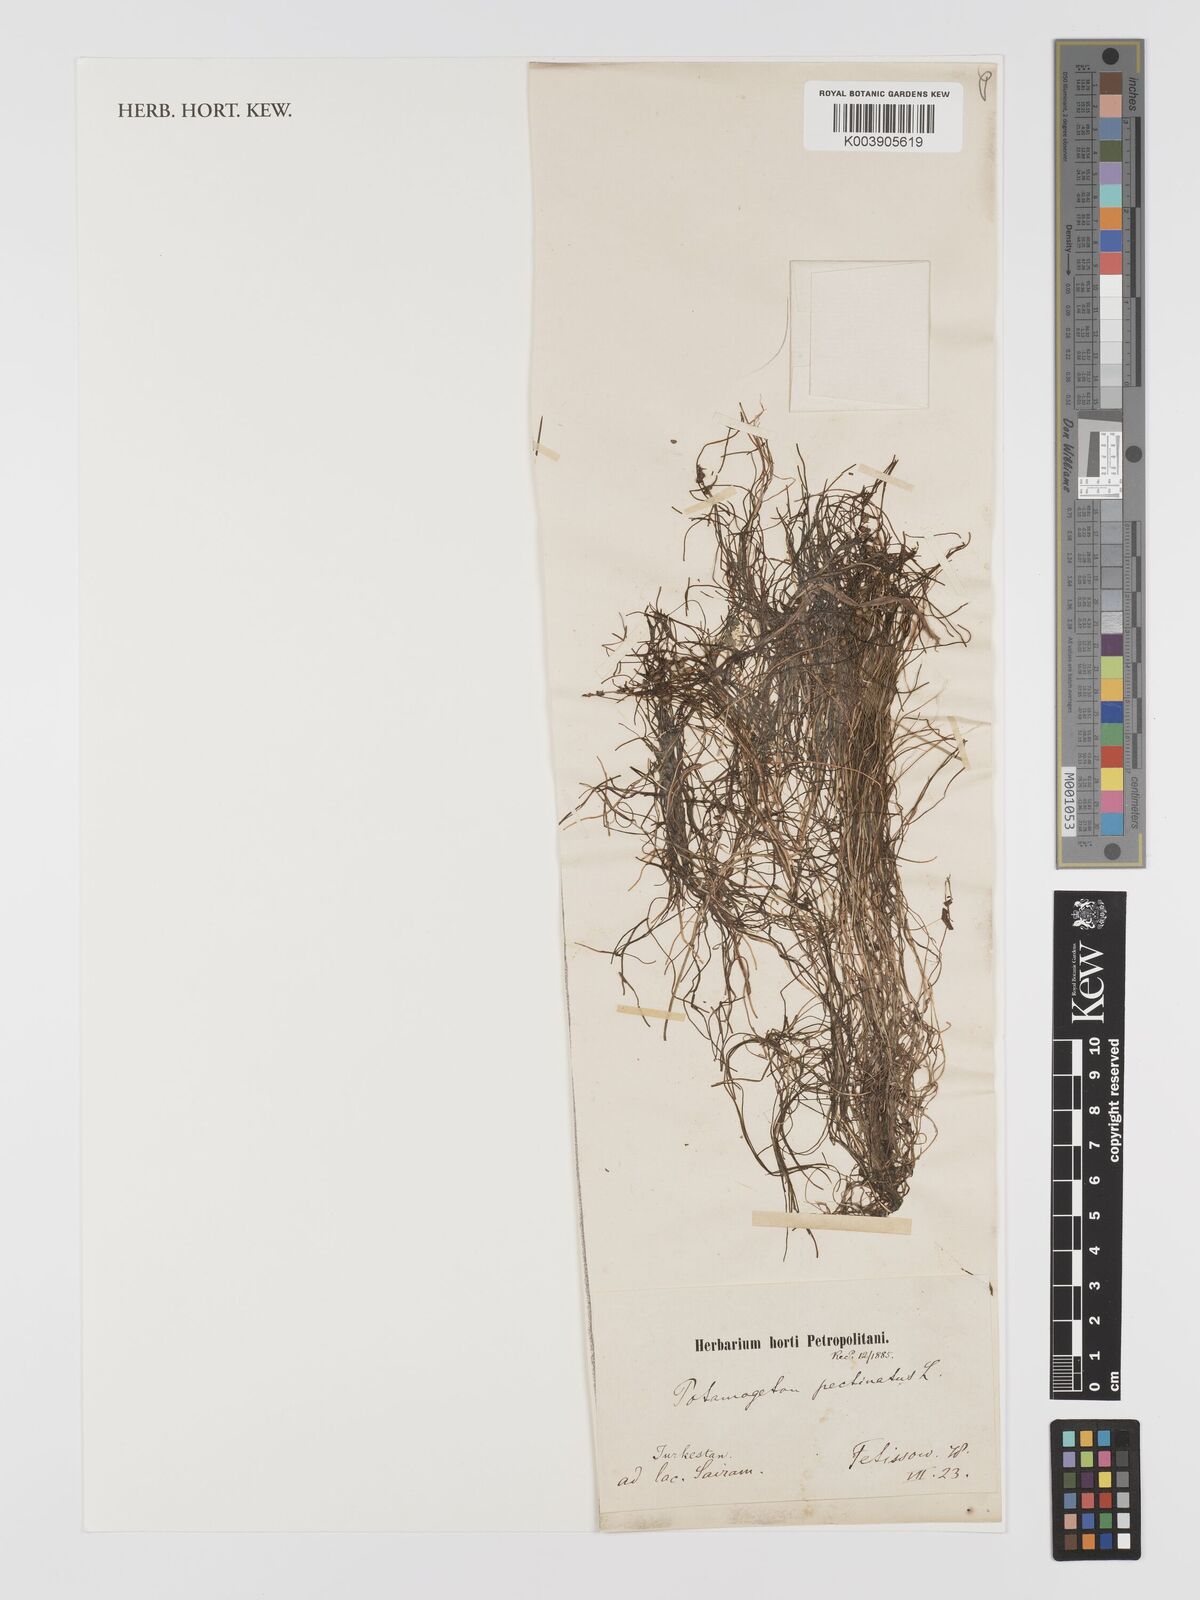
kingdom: Plantae
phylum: Tracheophyta
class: Liliopsida
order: Alismatales
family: Potamogetonaceae
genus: Stuckenia
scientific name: Stuckenia pectinata
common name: Sago pondweed
